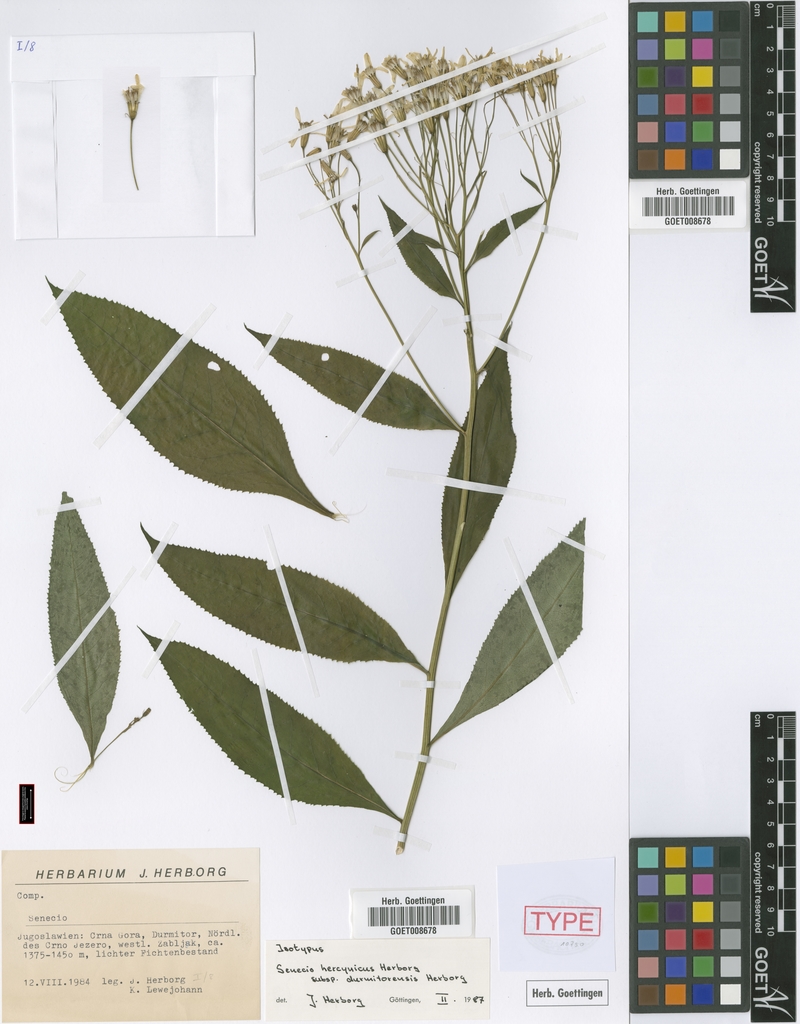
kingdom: Plantae
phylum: Tracheophyta
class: Magnoliopsida
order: Asterales
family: Asteraceae
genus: Senecio
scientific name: Senecio hercynicus
